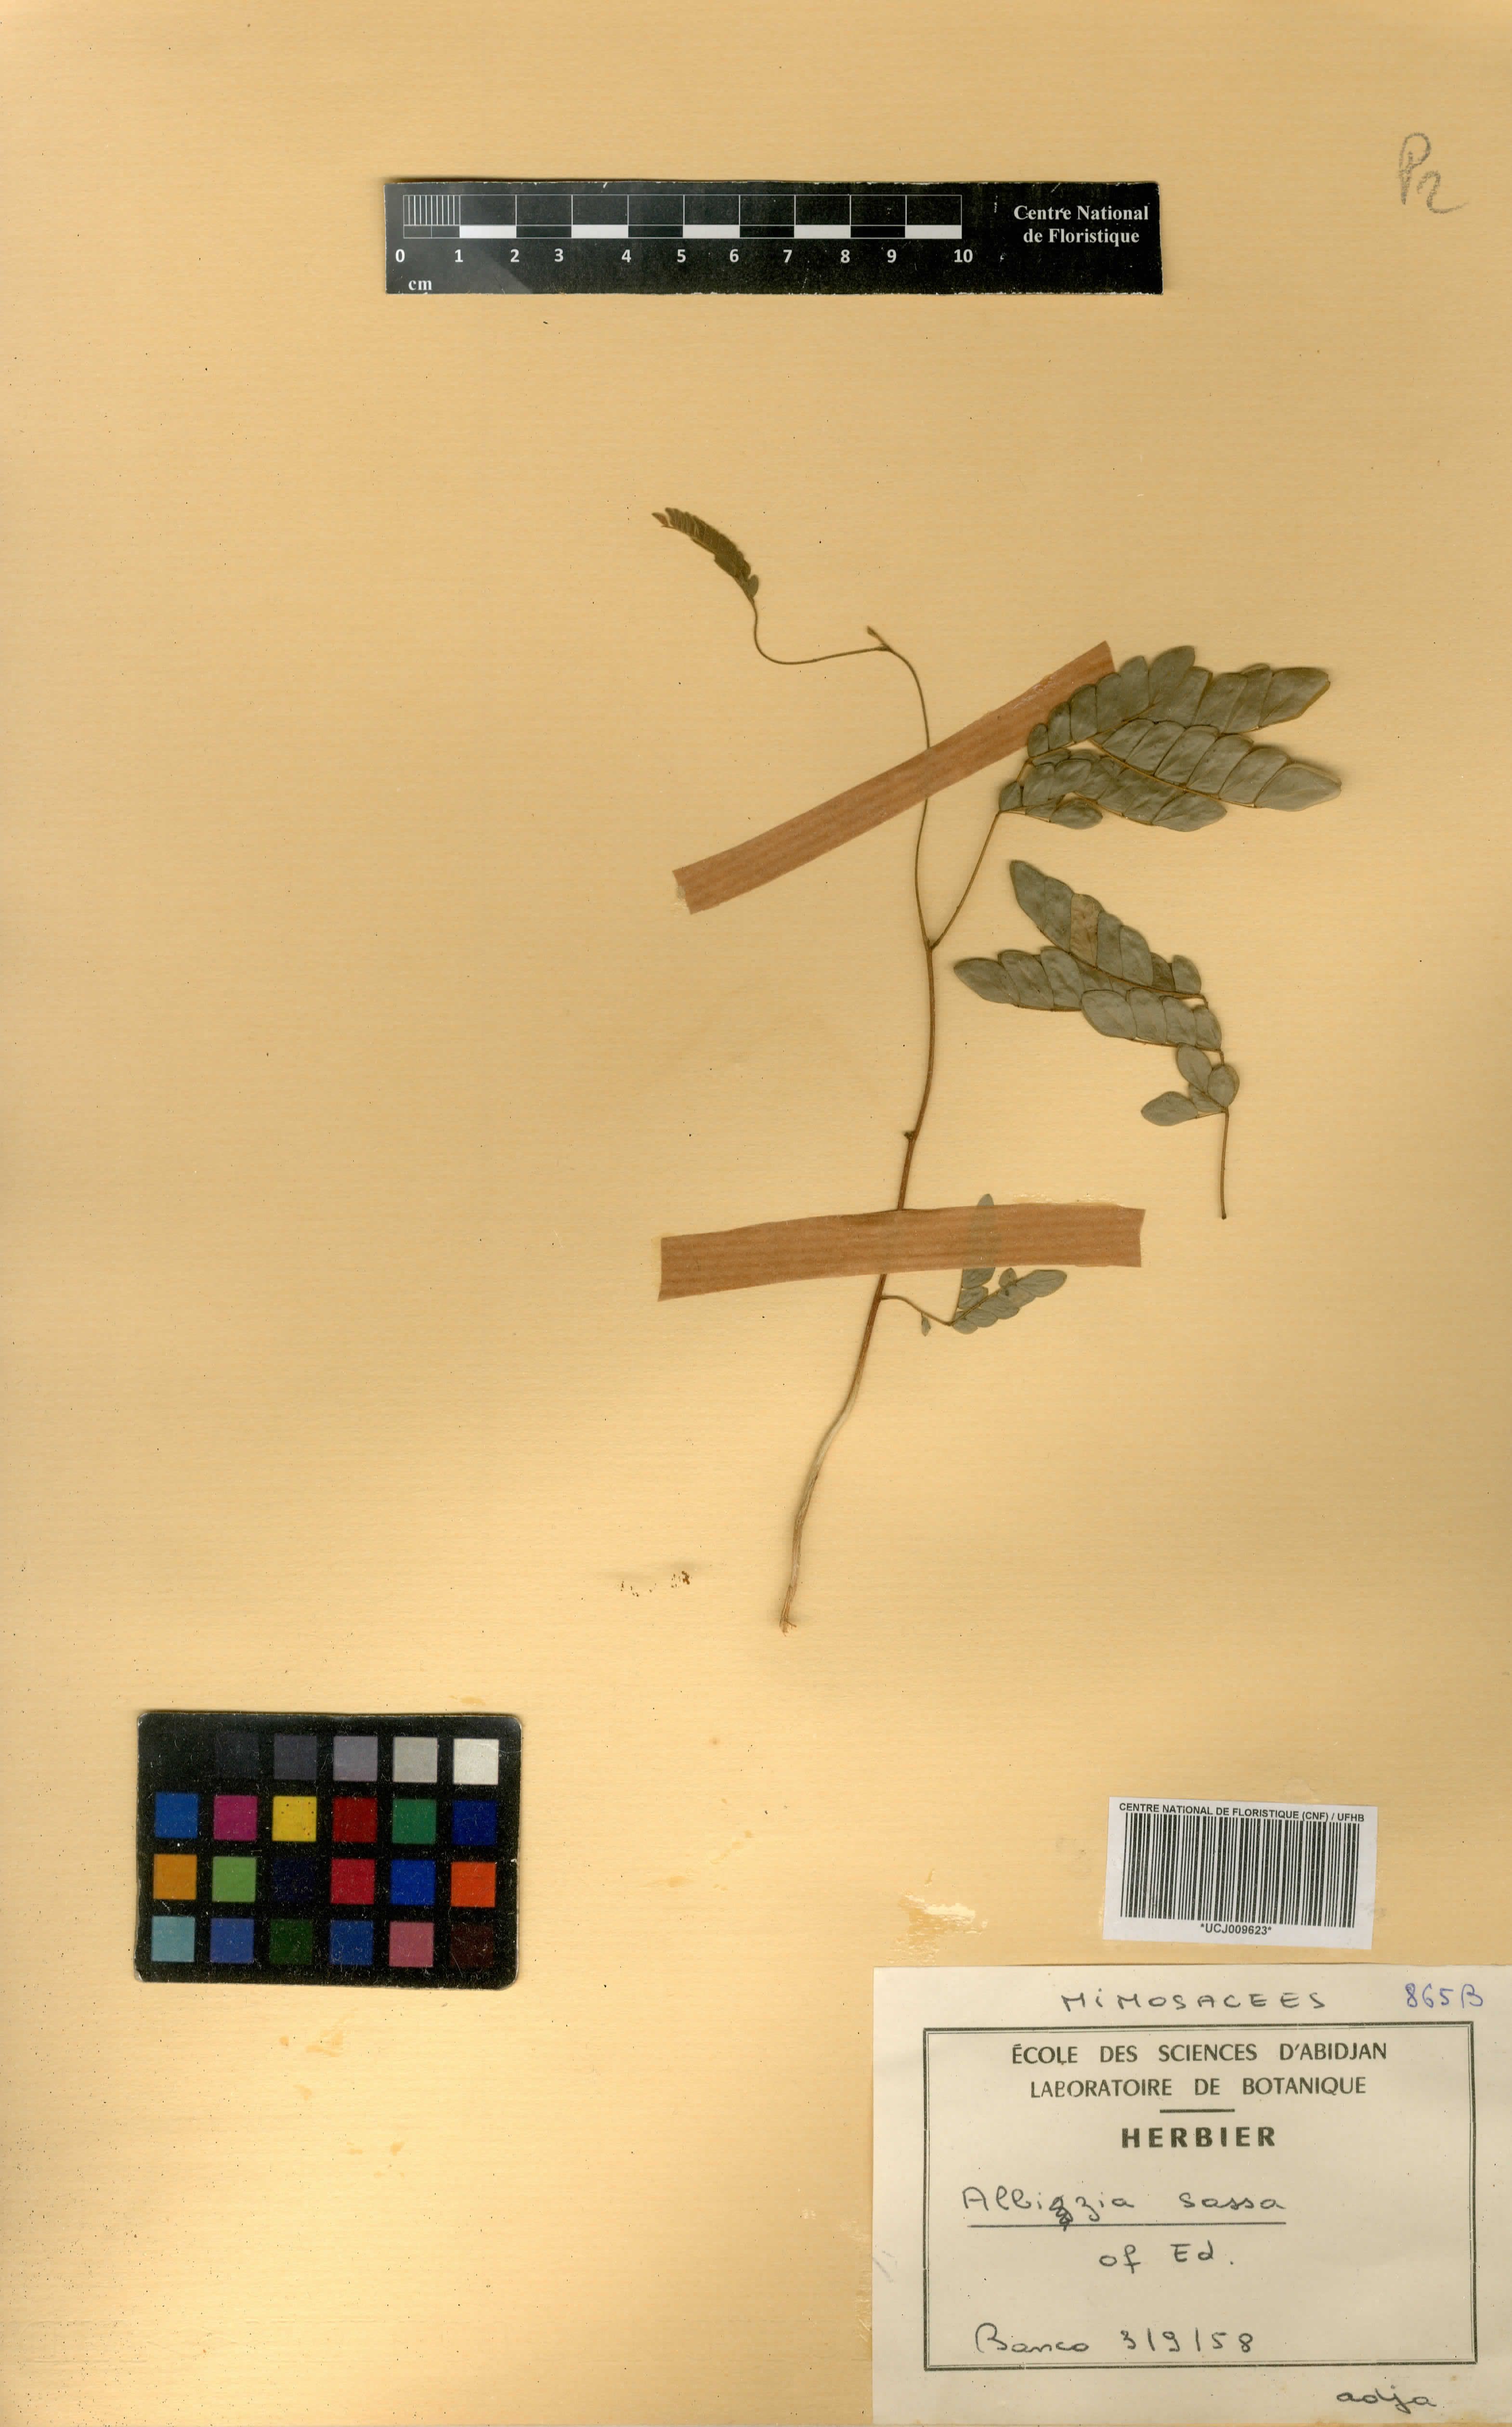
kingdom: Plantae
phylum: Tracheophyta
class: Magnoliopsida
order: Fabales
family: Fabaceae
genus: Albizia
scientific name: Albizia adianthifolia
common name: West african albizia
